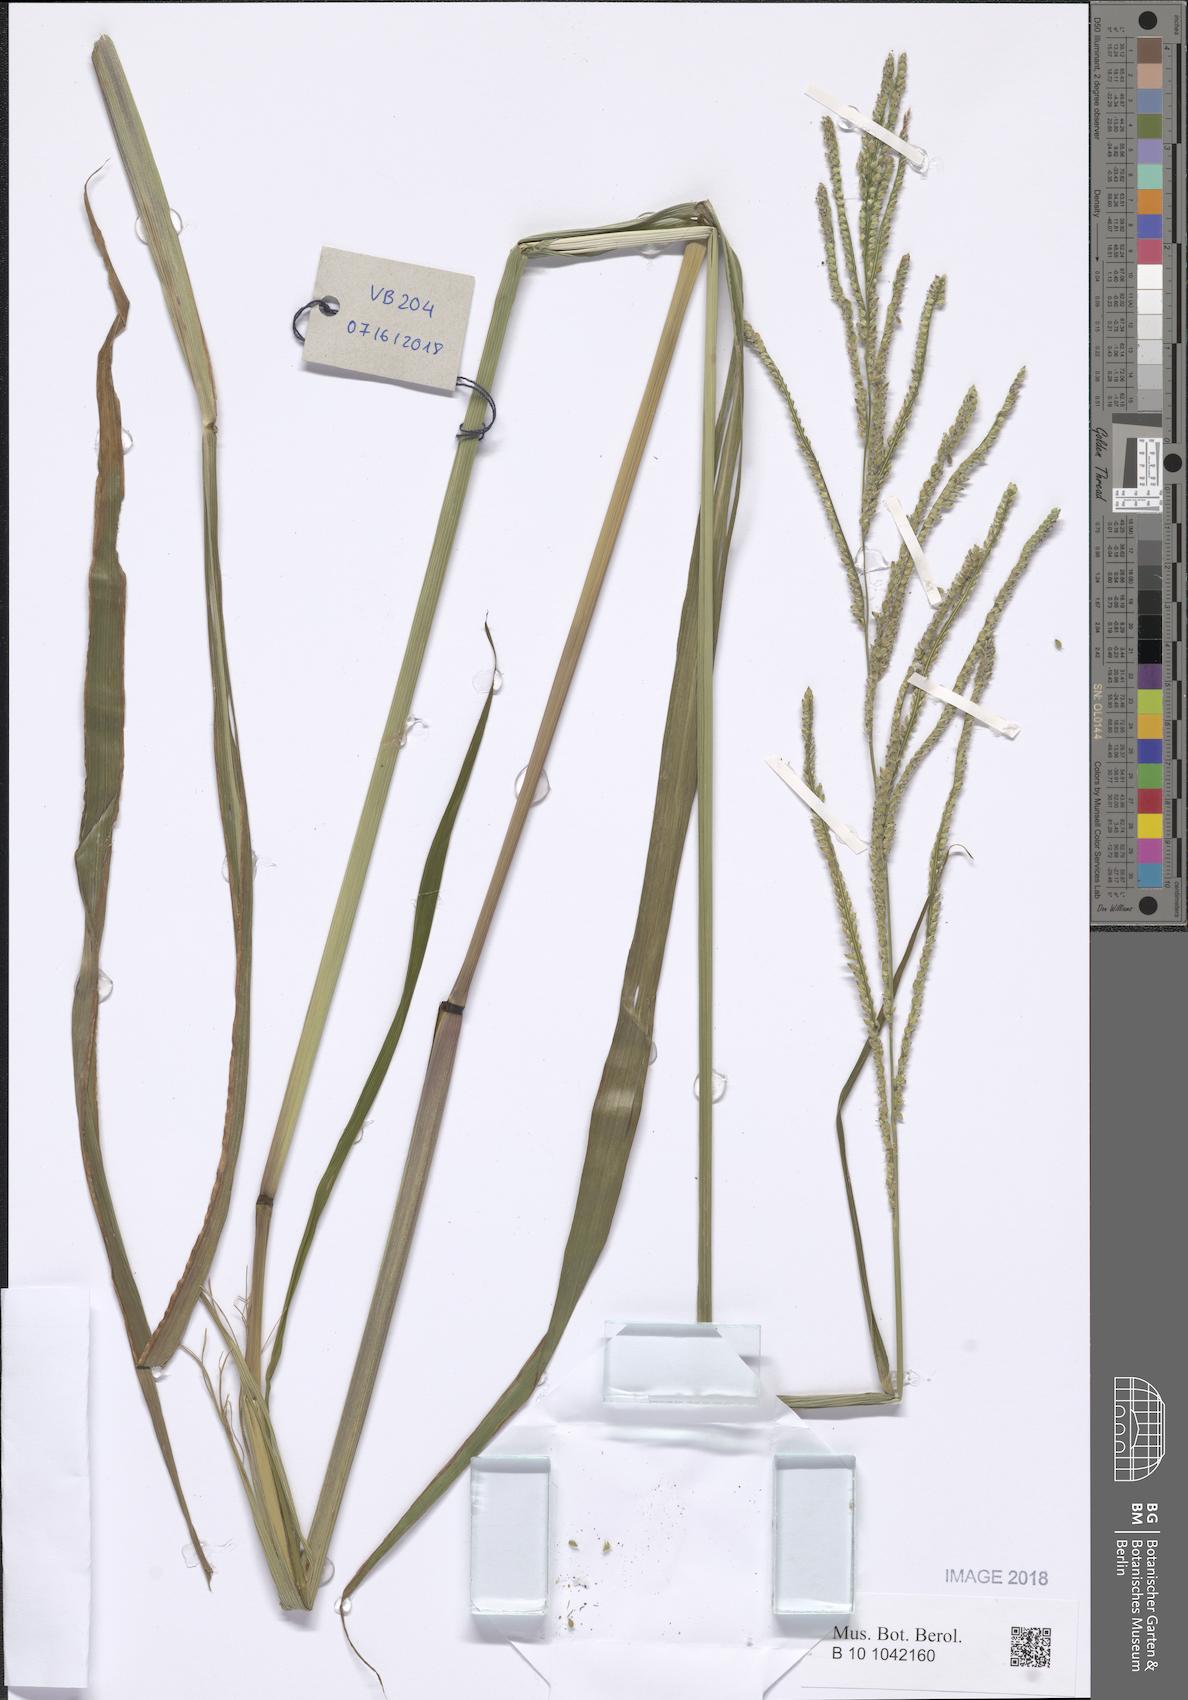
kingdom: Plantae
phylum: Tracheophyta
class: Liliopsida
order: Poales
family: Poaceae
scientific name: Poaceae
